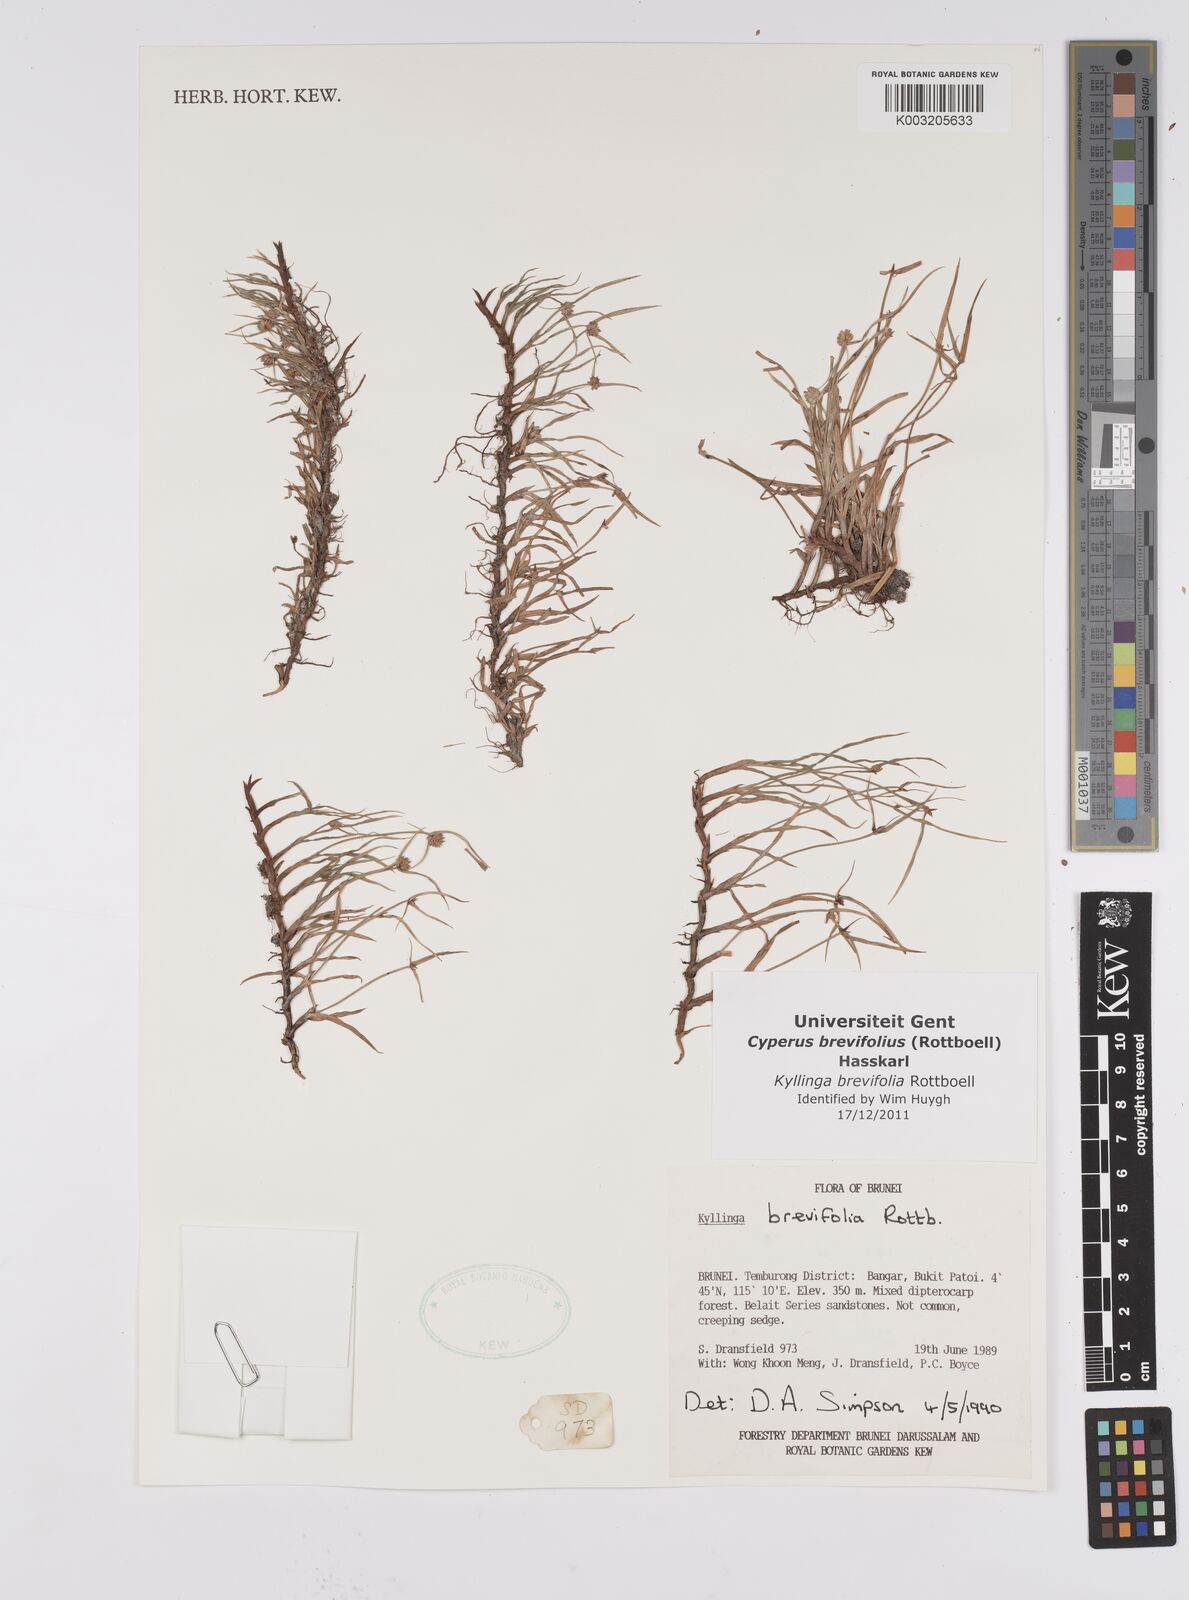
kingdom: Plantae
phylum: Tracheophyta
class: Liliopsida
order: Poales
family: Cyperaceae
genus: Cyperus
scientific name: Cyperus brevifolius
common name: Globe kyllinga
